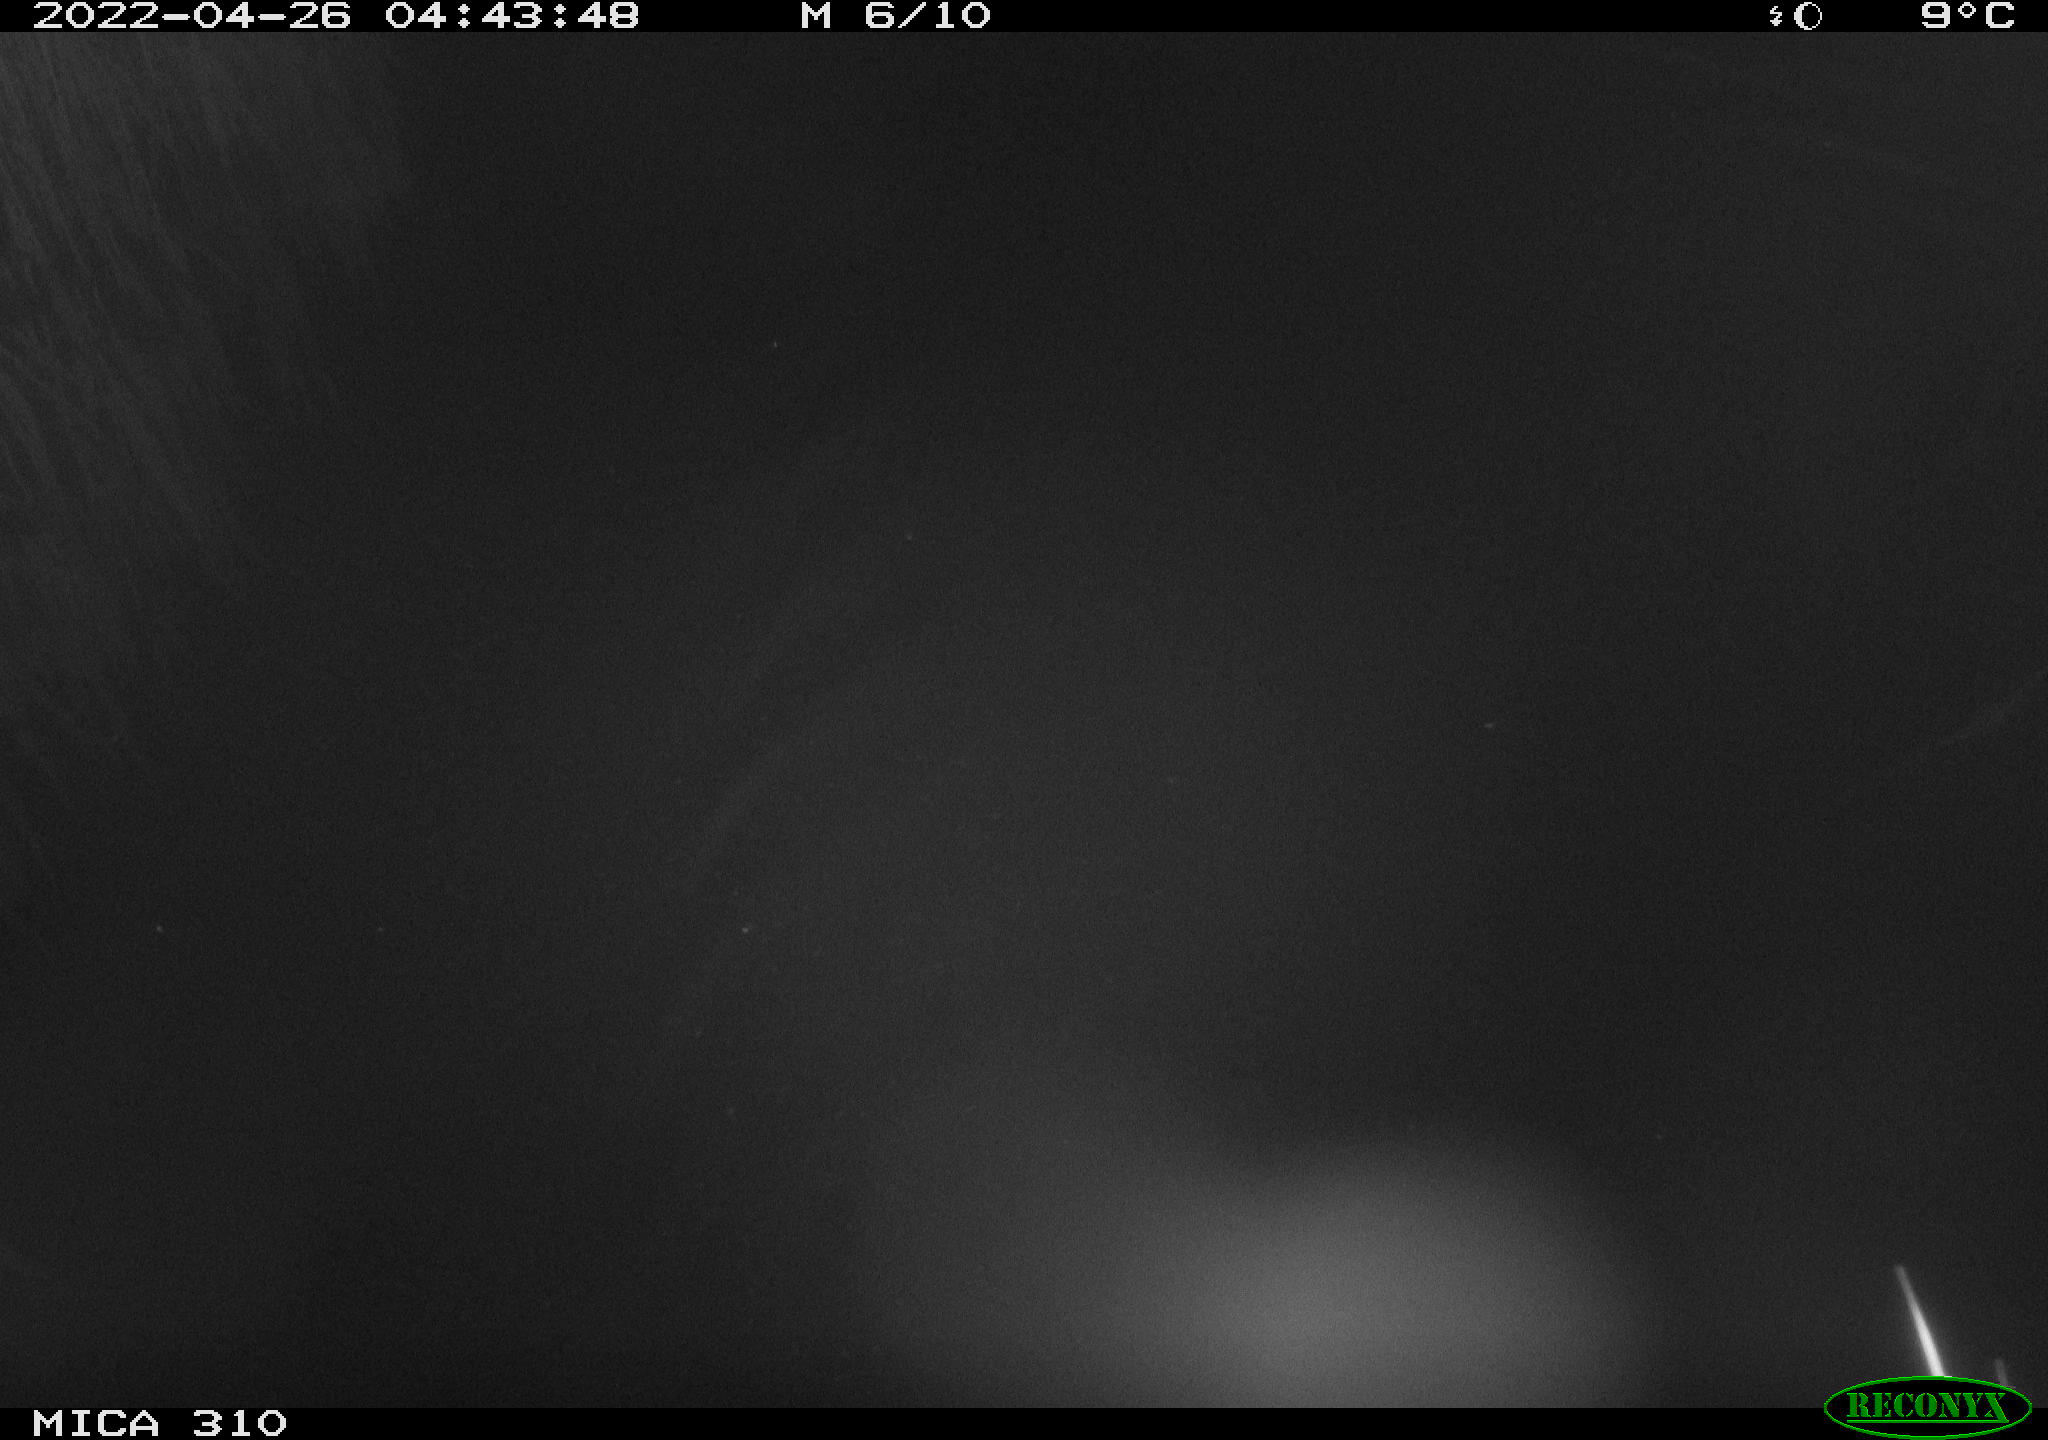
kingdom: Animalia
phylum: Chordata
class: Aves
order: Anseriformes
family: Anatidae
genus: Anas
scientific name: Anas platyrhynchos
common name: Mallard
